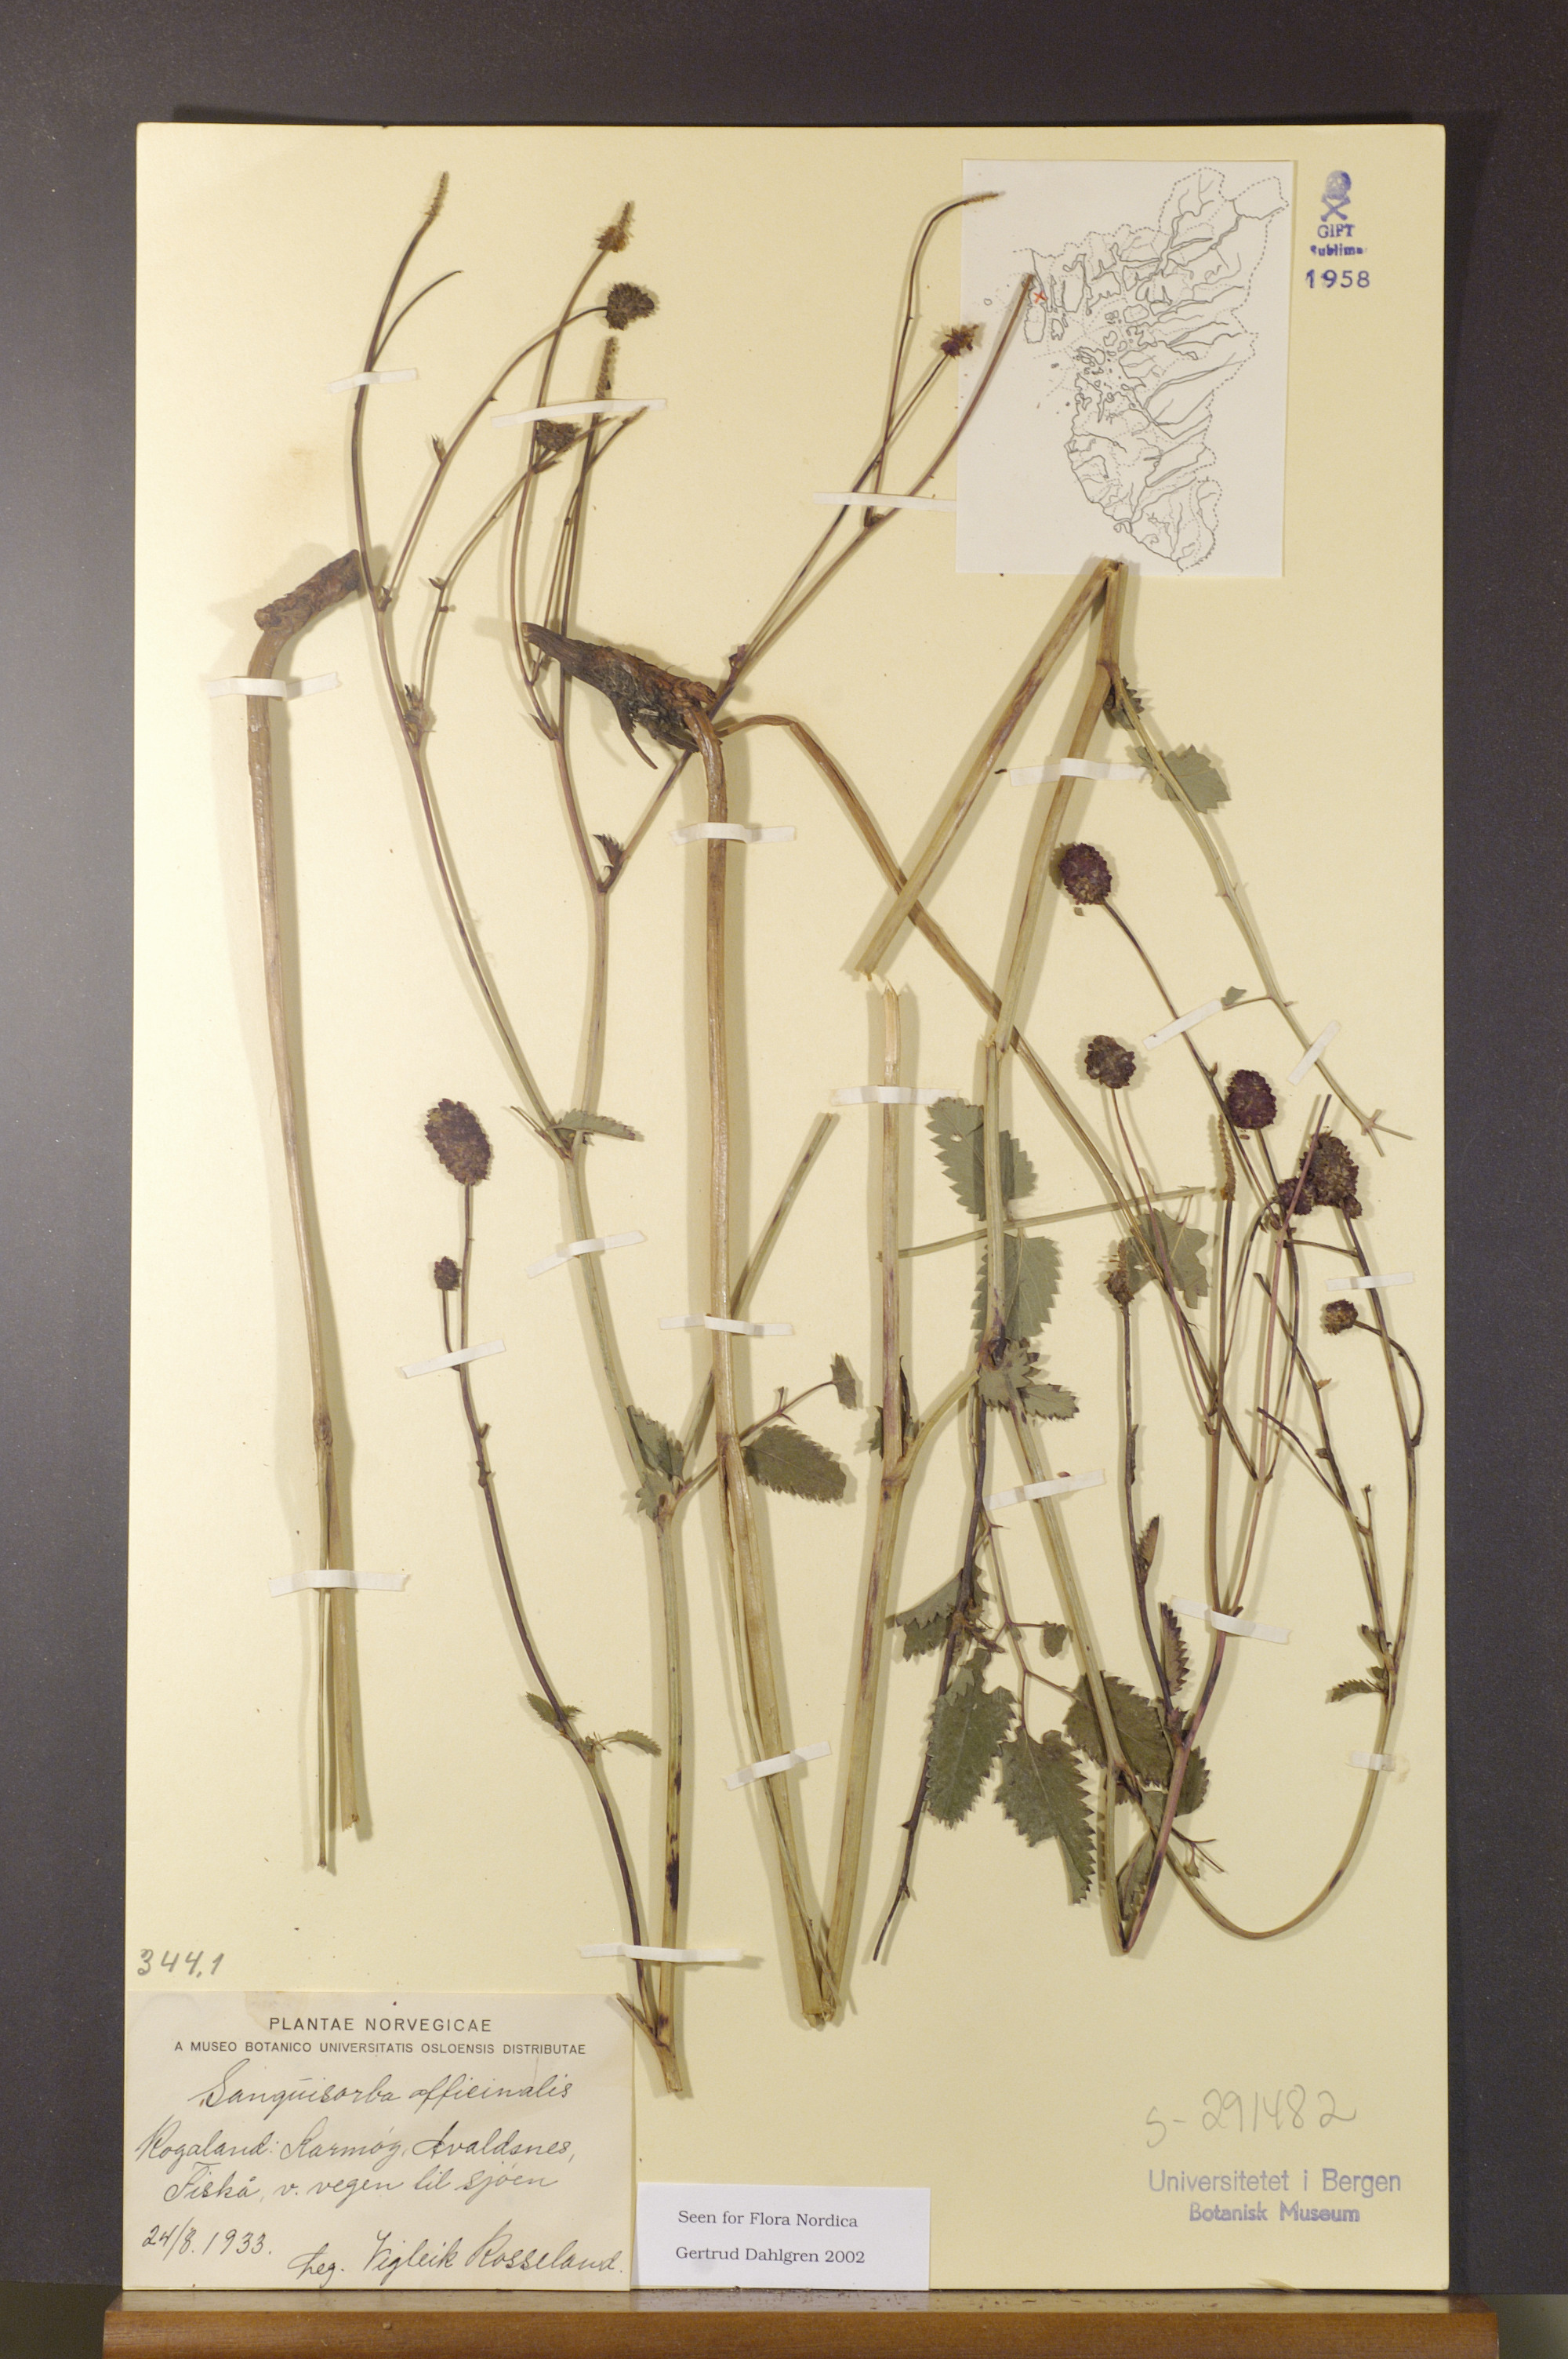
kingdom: Plantae
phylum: Tracheophyta
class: Magnoliopsida
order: Rosales
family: Rosaceae
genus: Sanguisorba
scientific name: Sanguisorba officinalis
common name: Great burnet
